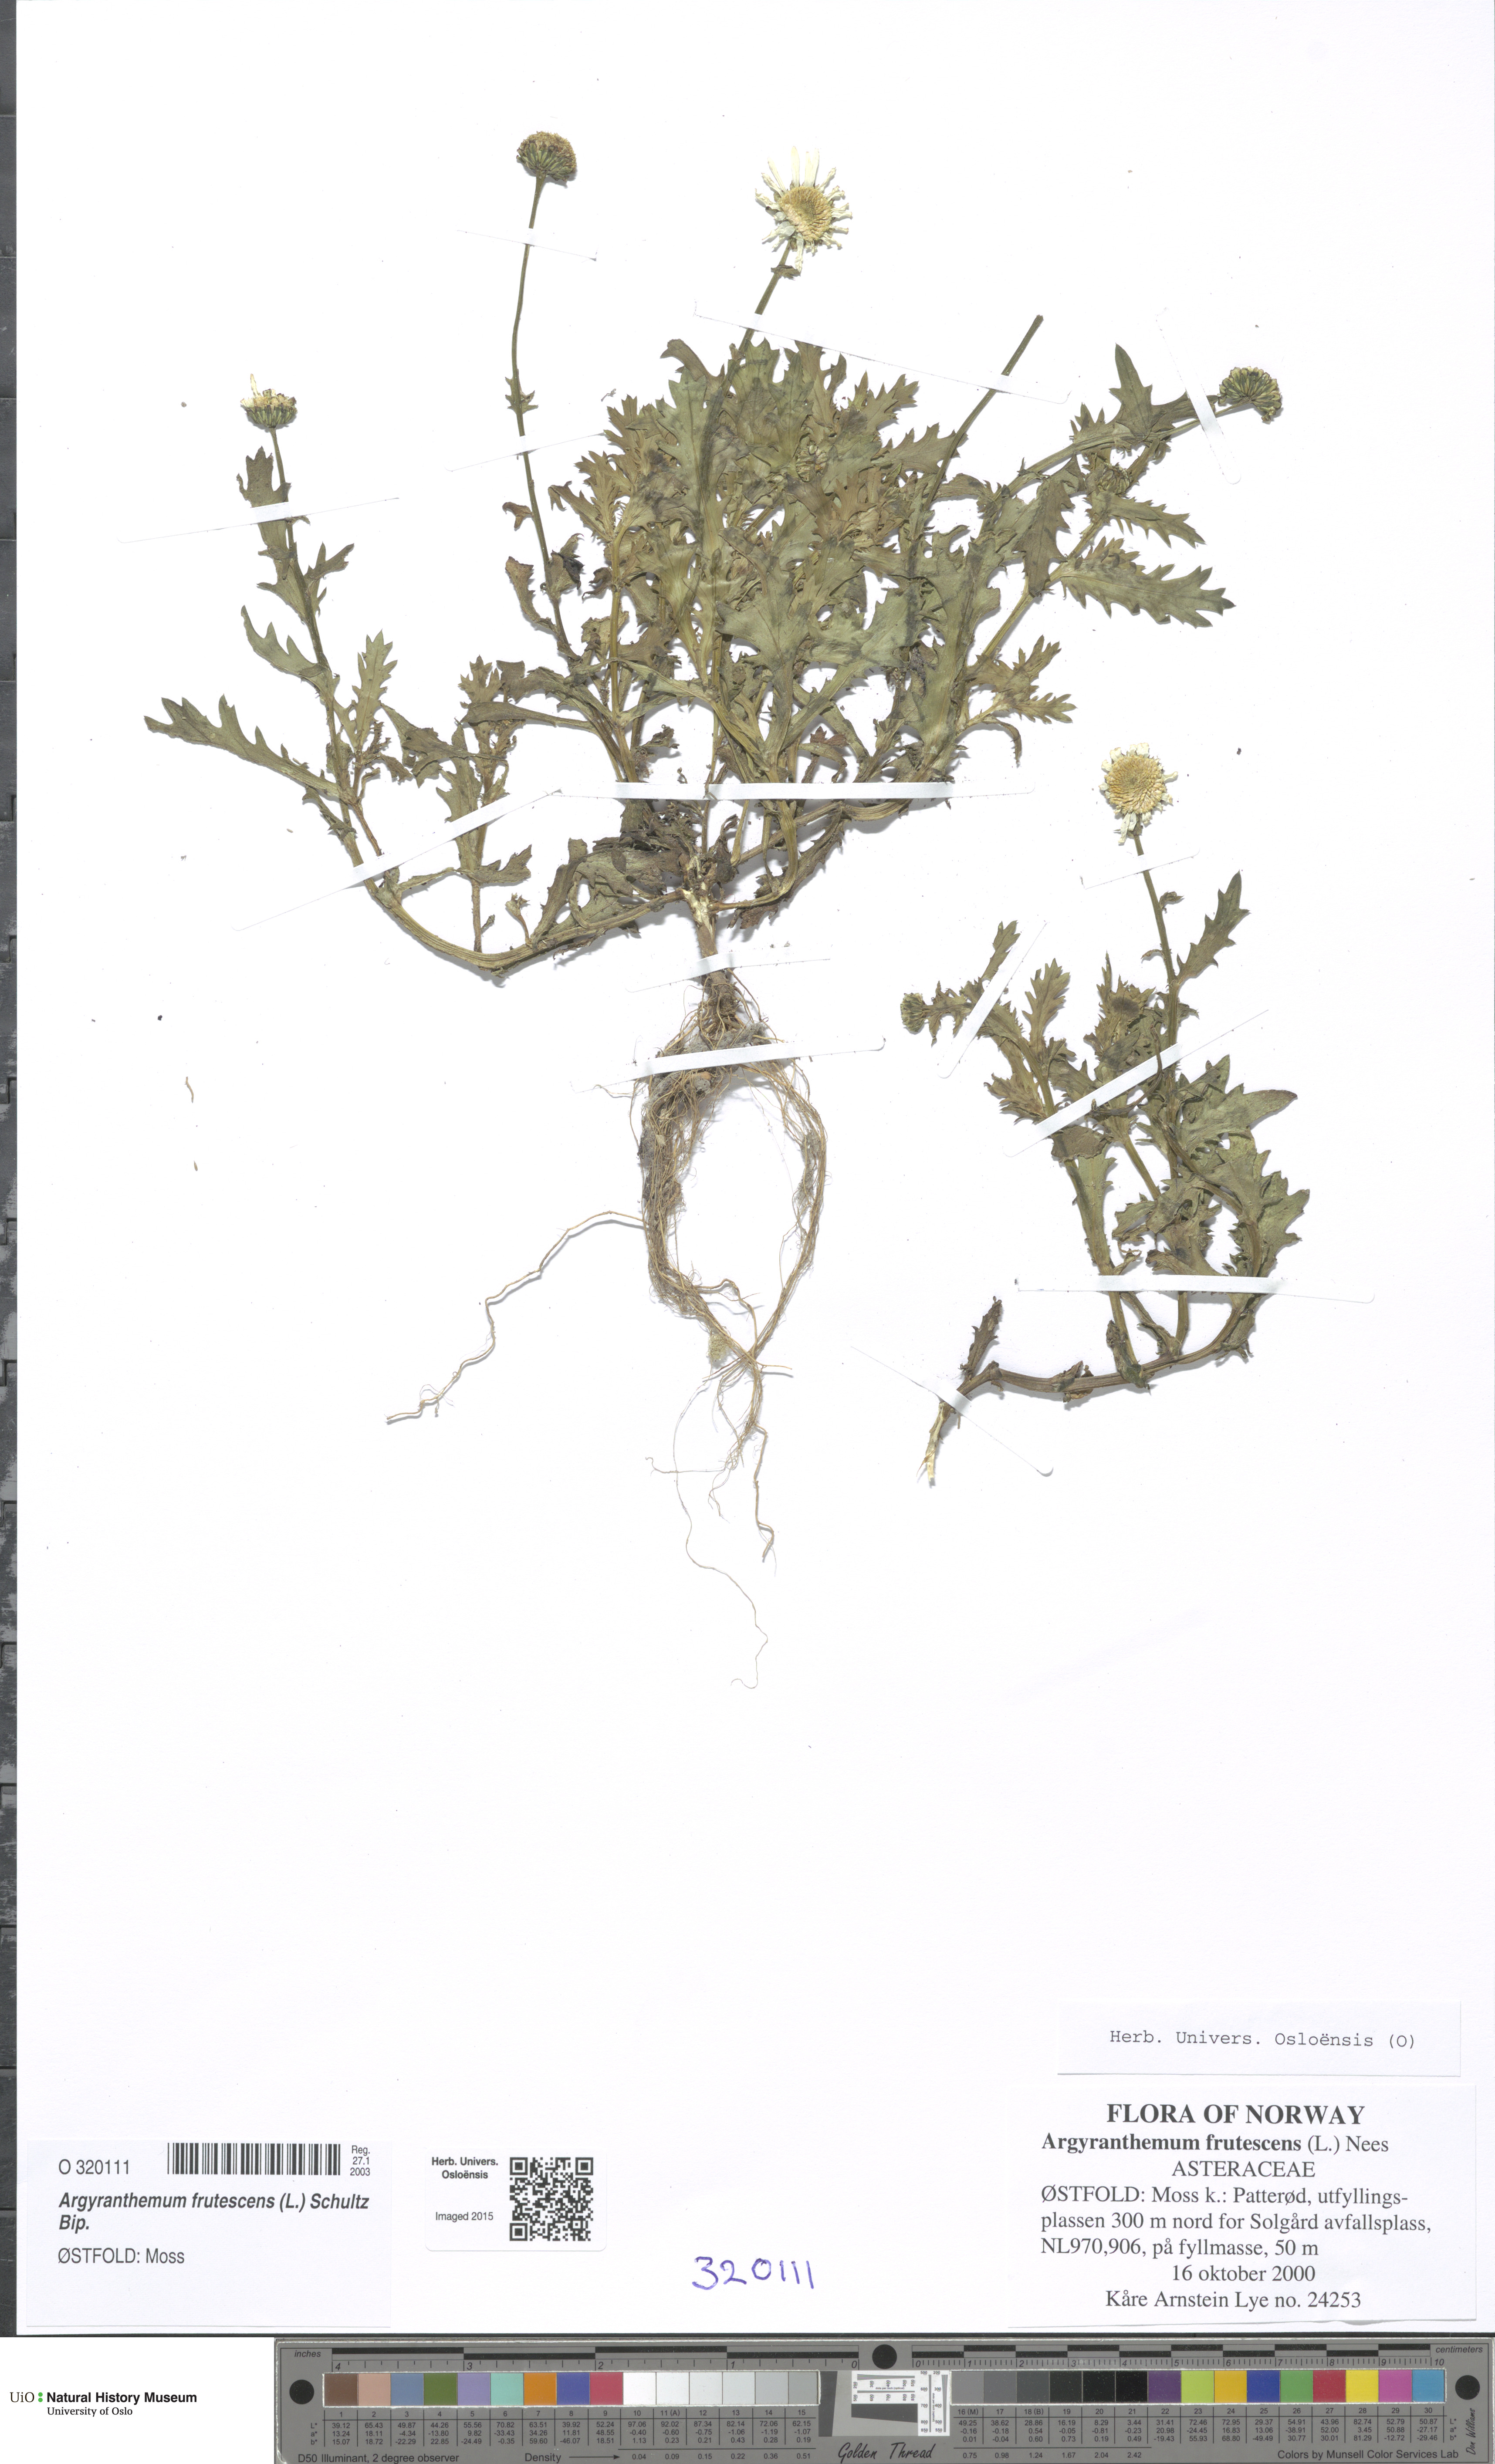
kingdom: Plantae
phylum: Tracheophyta
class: Magnoliopsida
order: Asterales
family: Asteraceae
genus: Argyranthemum
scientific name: Argyranthemum frutescens
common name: Paris daisy
